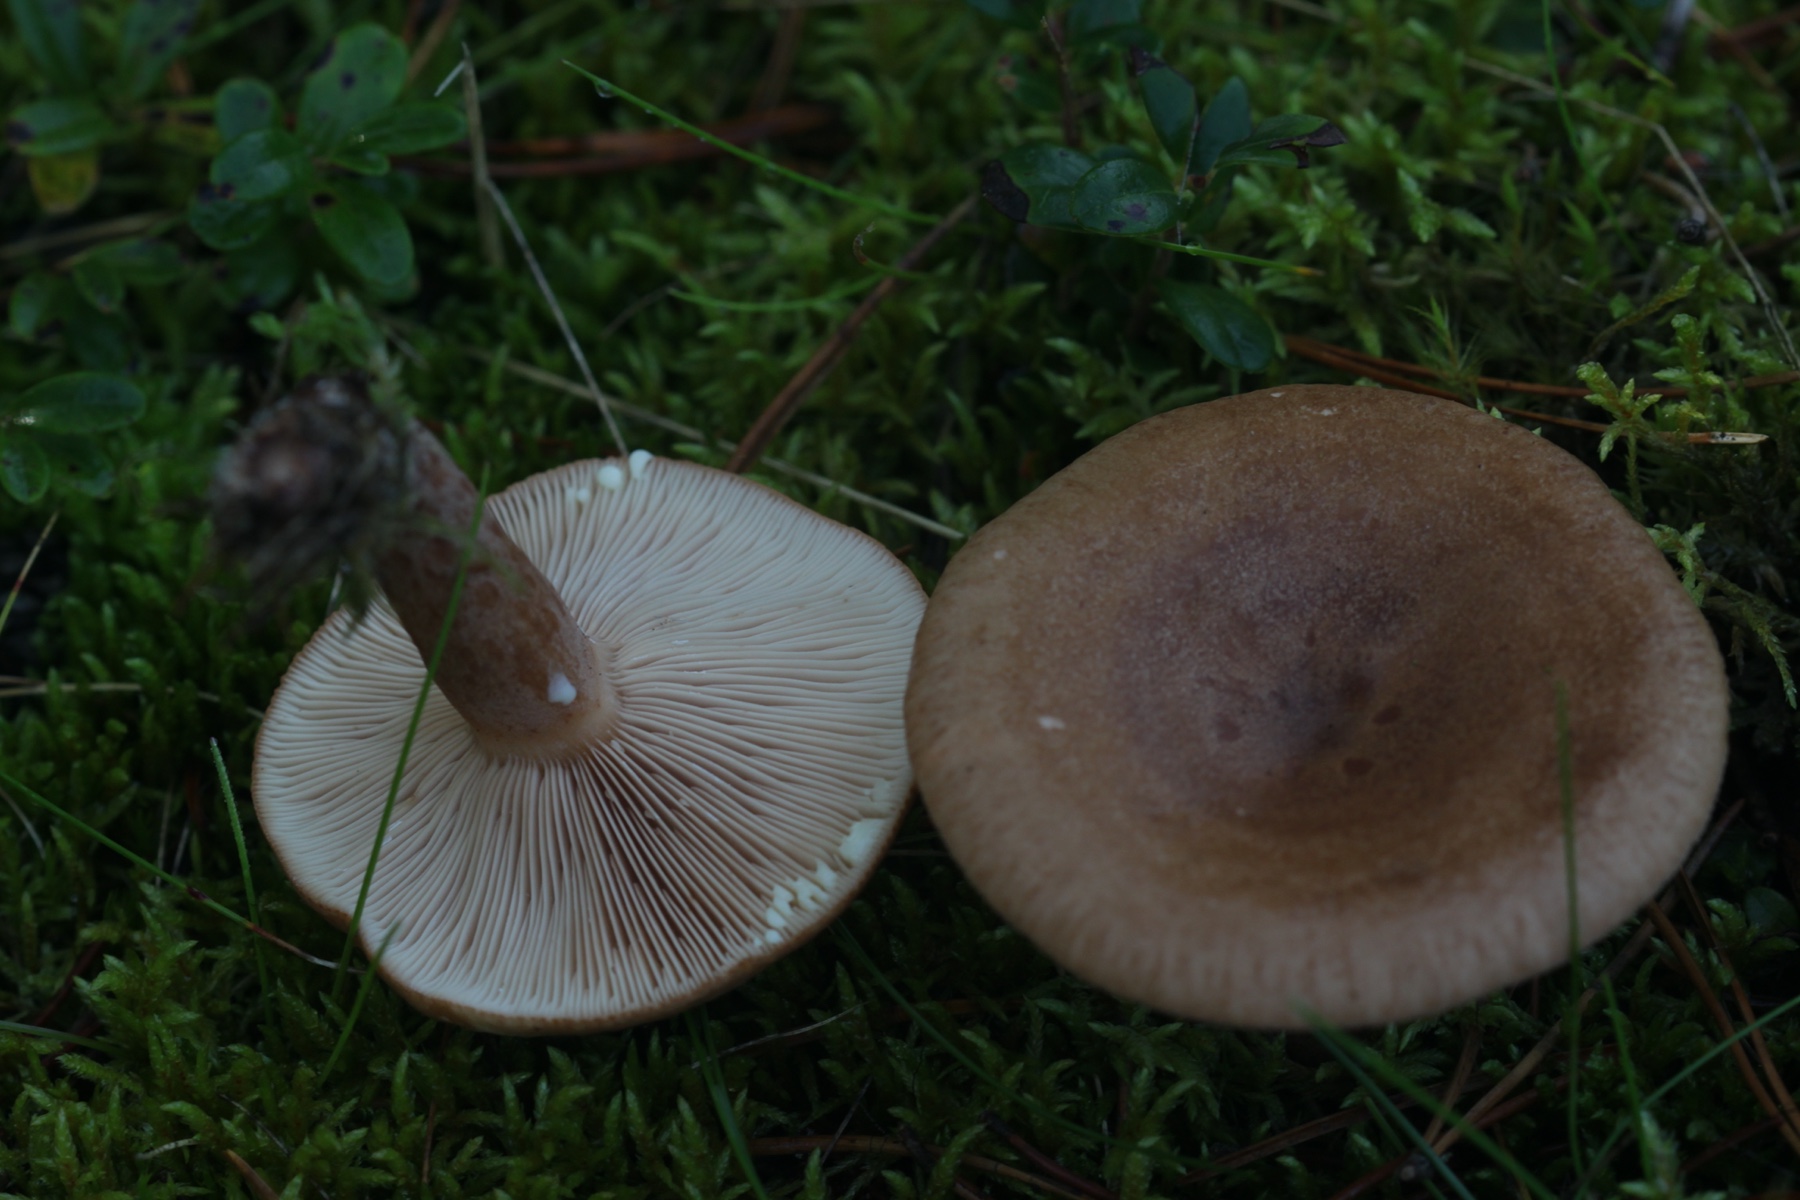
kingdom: Fungi
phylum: Basidiomycota
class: Agaricomycetes
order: Russulales
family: Russulaceae
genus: Lactarius
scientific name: Lactarius quietus
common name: ege-mælkehat
